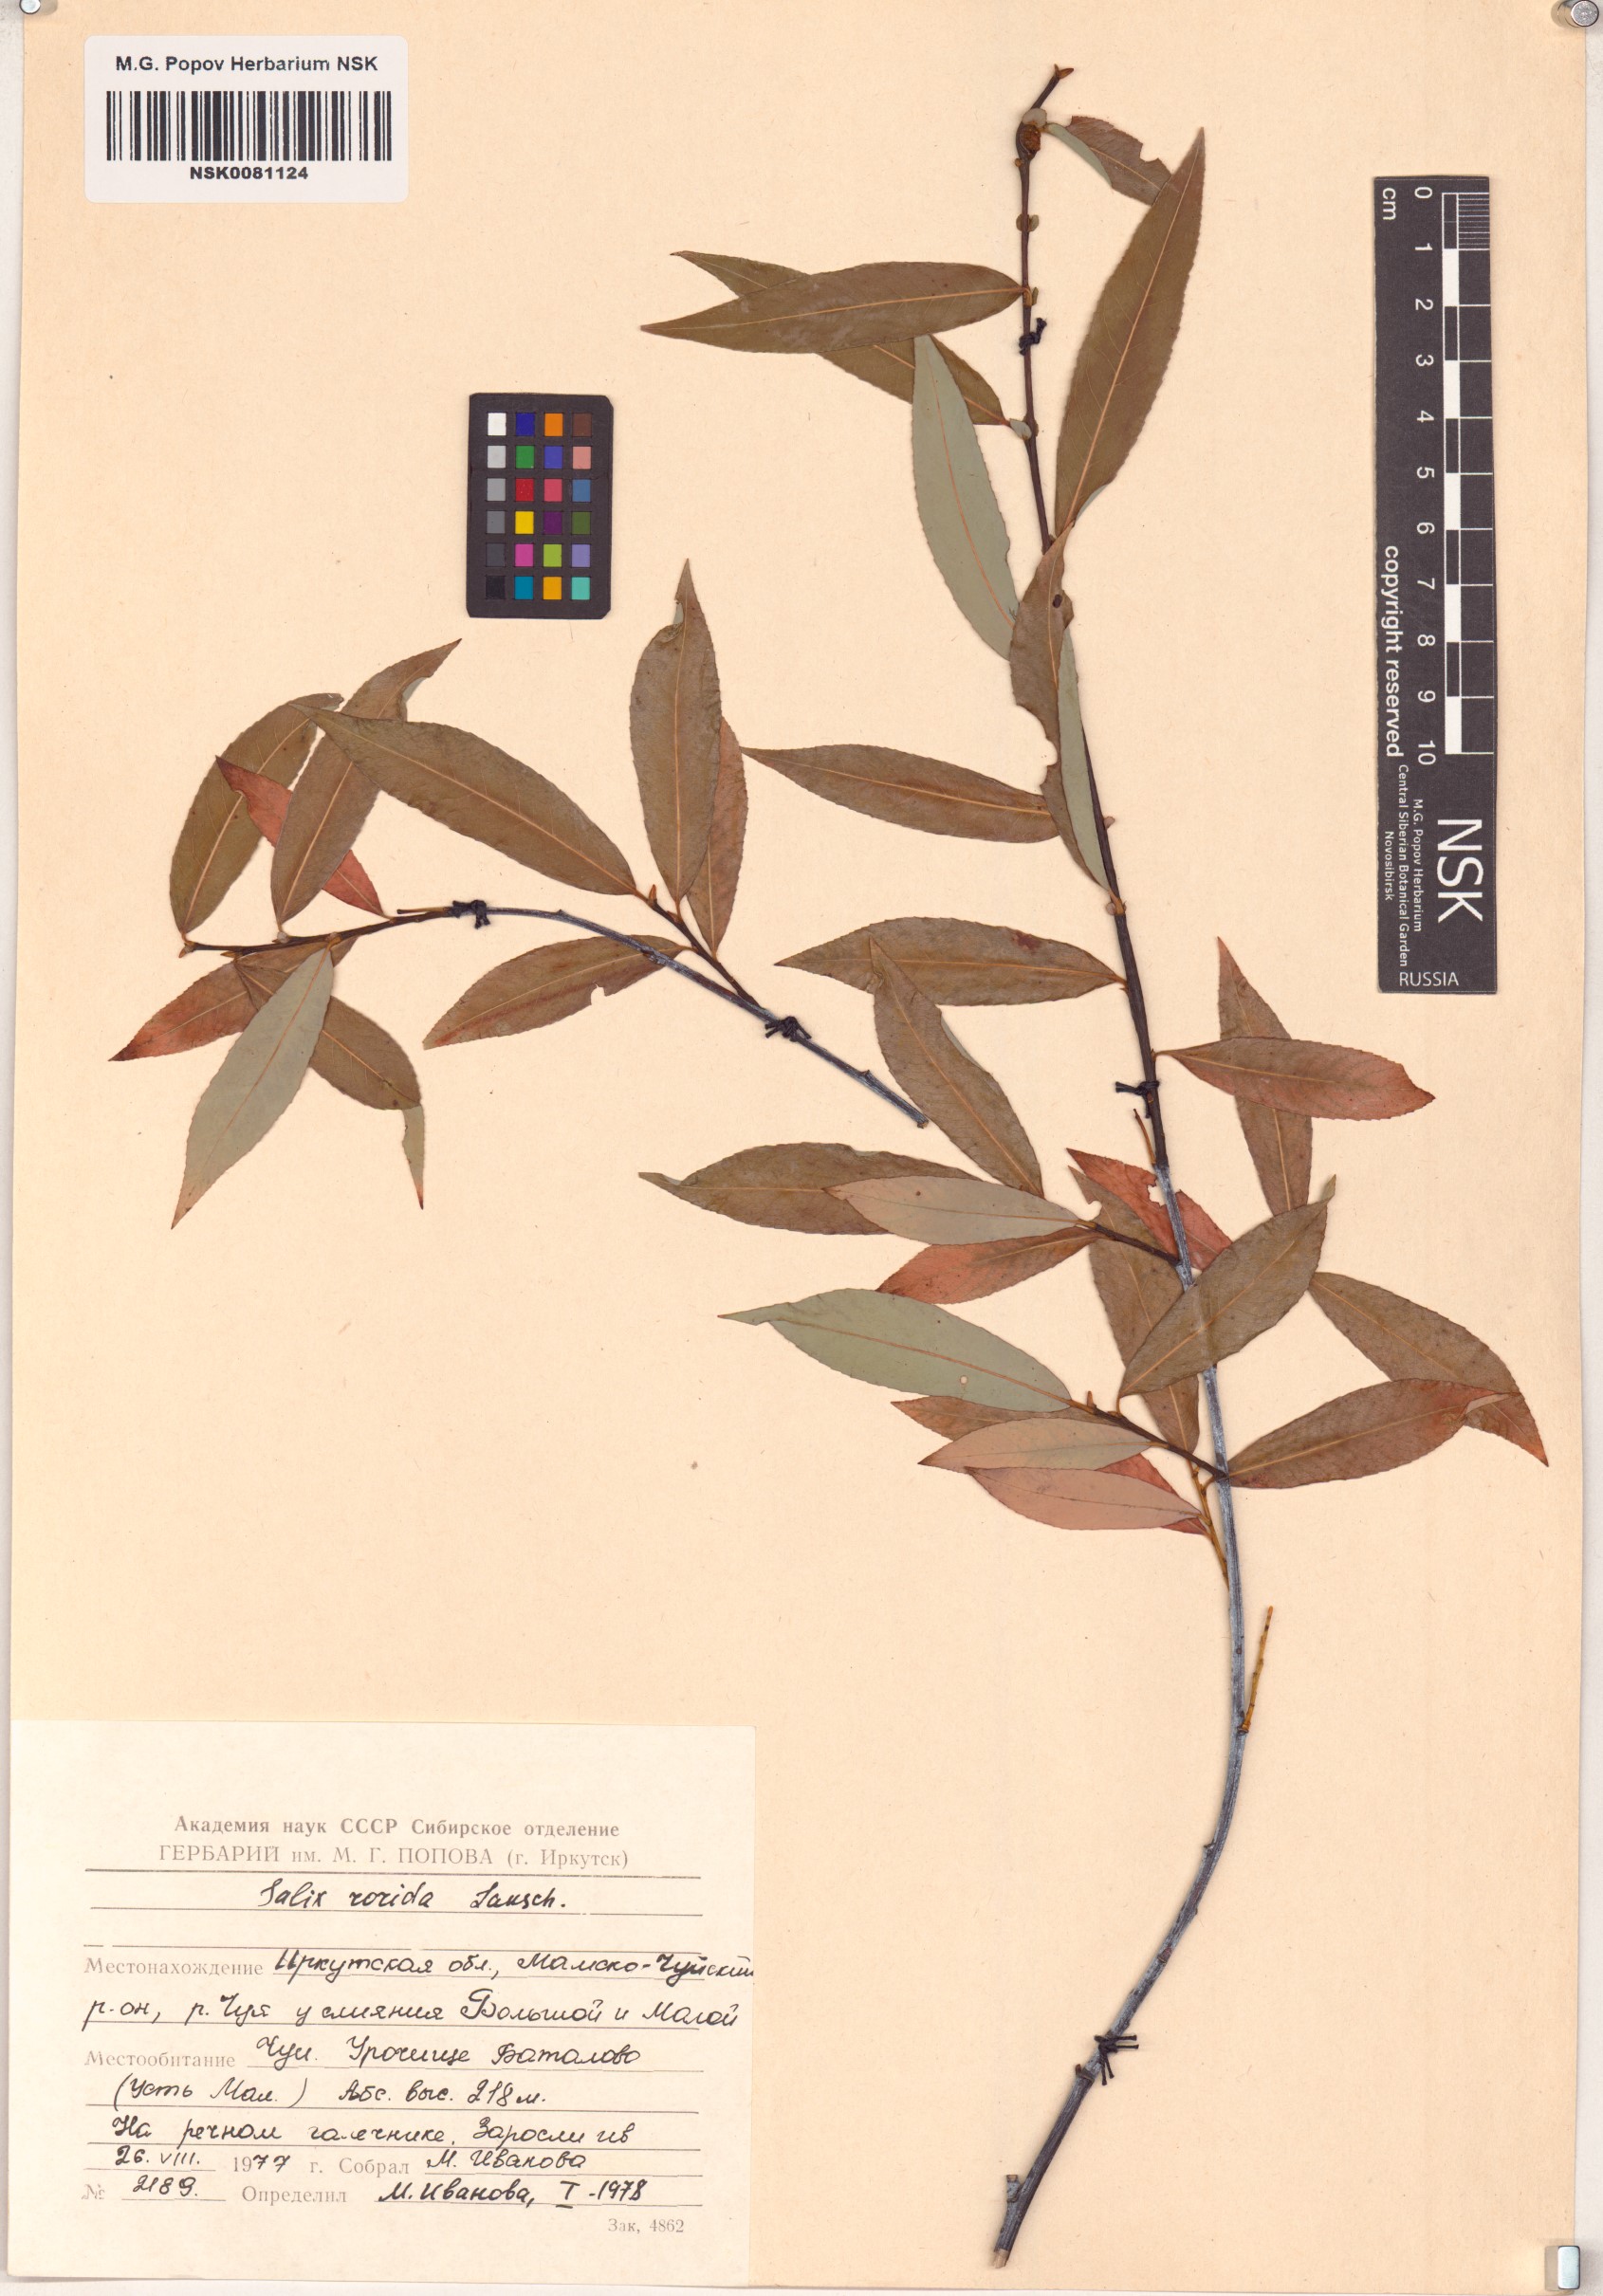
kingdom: Plantae
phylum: Tracheophyta
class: Magnoliopsida
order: Malpighiales
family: Salicaceae
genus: Salix
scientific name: Salix rorida
